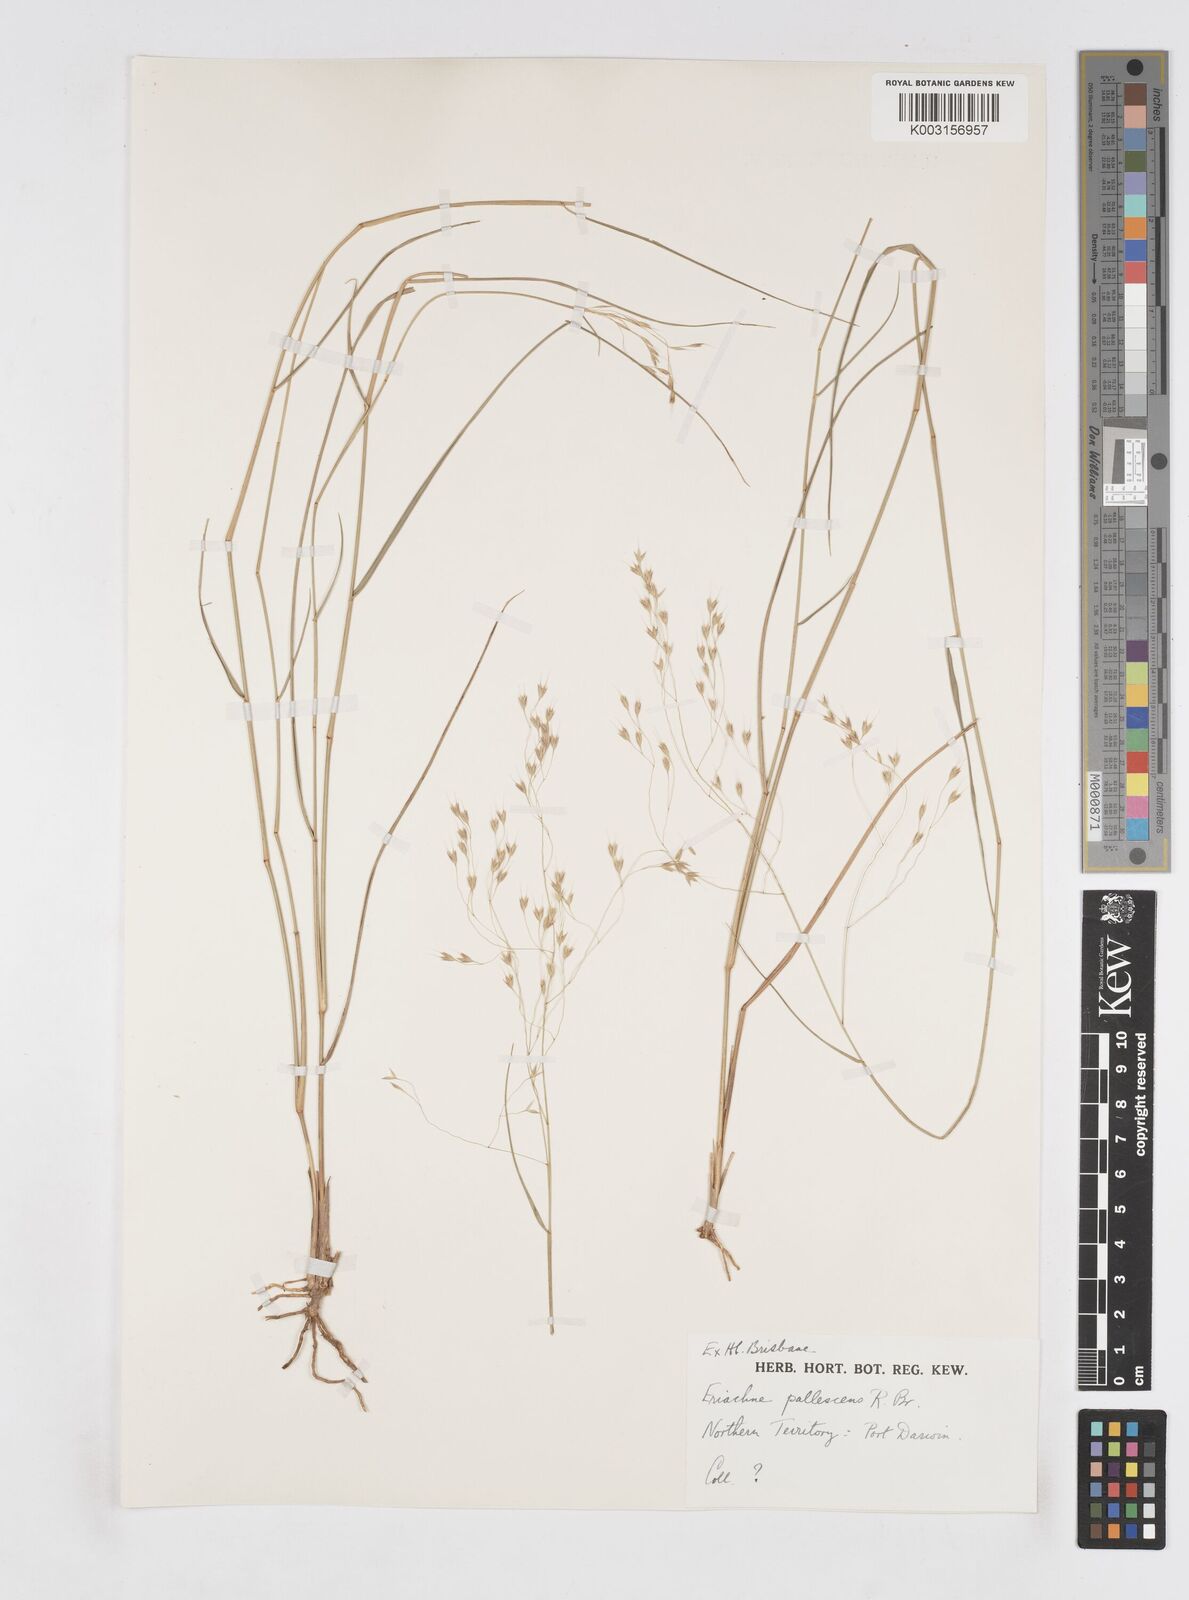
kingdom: Plantae
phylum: Tracheophyta
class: Liliopsida
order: Poales
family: Poaceae
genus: Eriachne
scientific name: Eriachne pallescens
